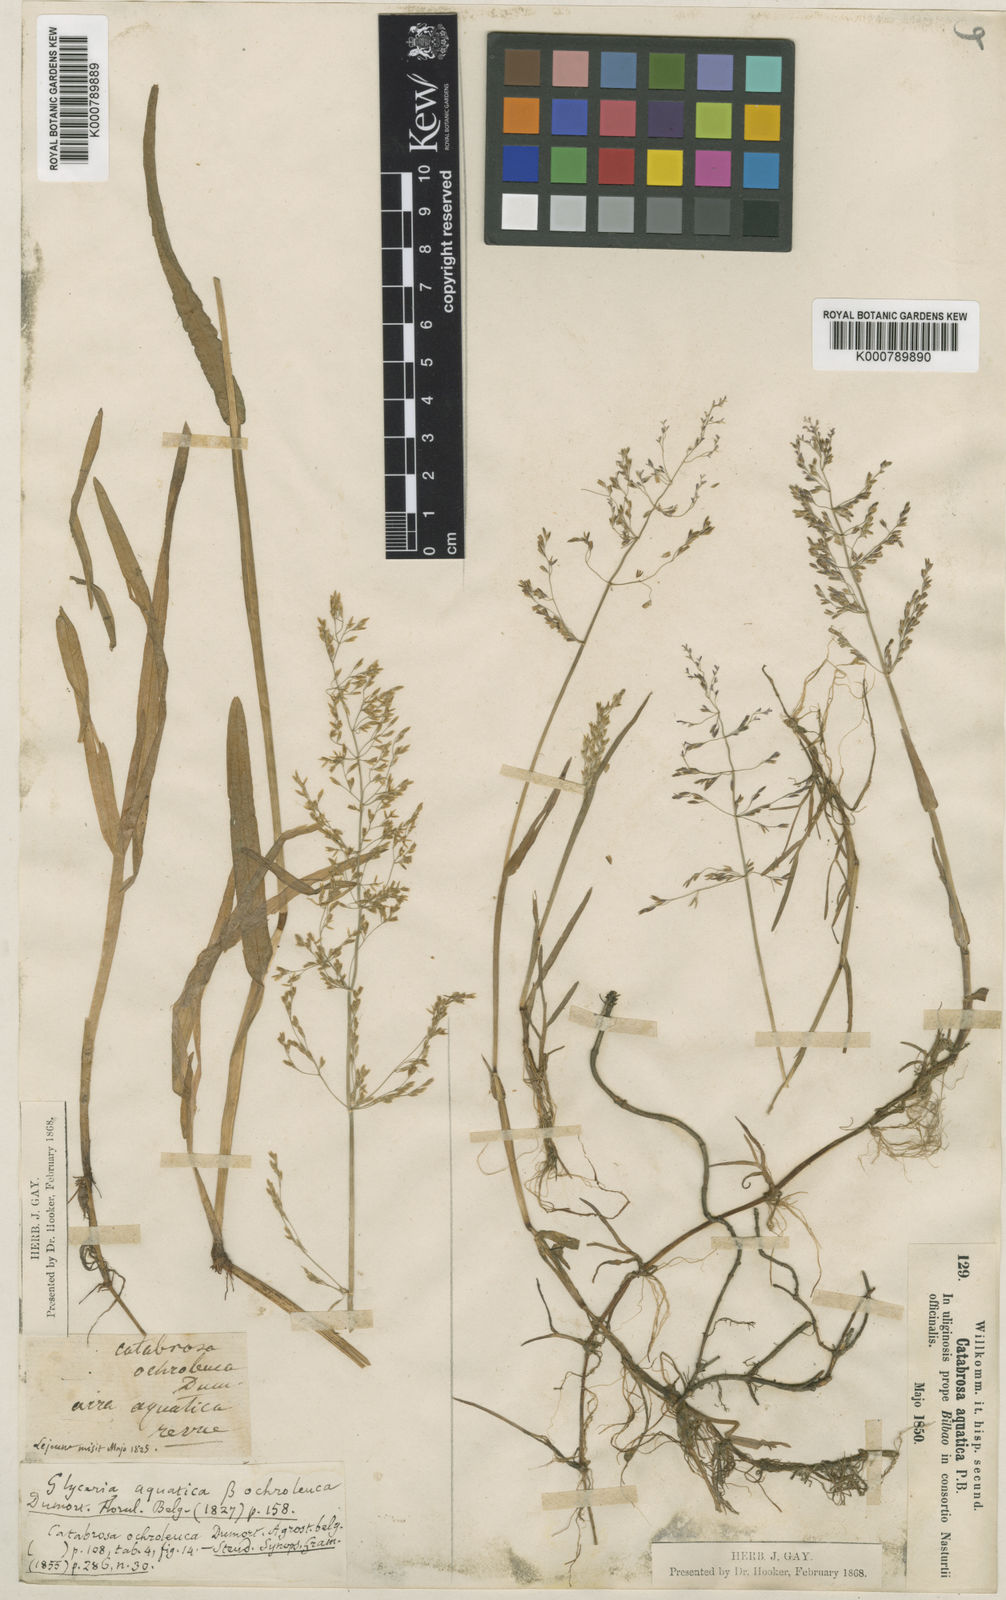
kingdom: Plantae
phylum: Tracheophyta
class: Liliopsida
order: Poales
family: Poaceae
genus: Catabrosa
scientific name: Catabrosa aquatica
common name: Whorl-grass
